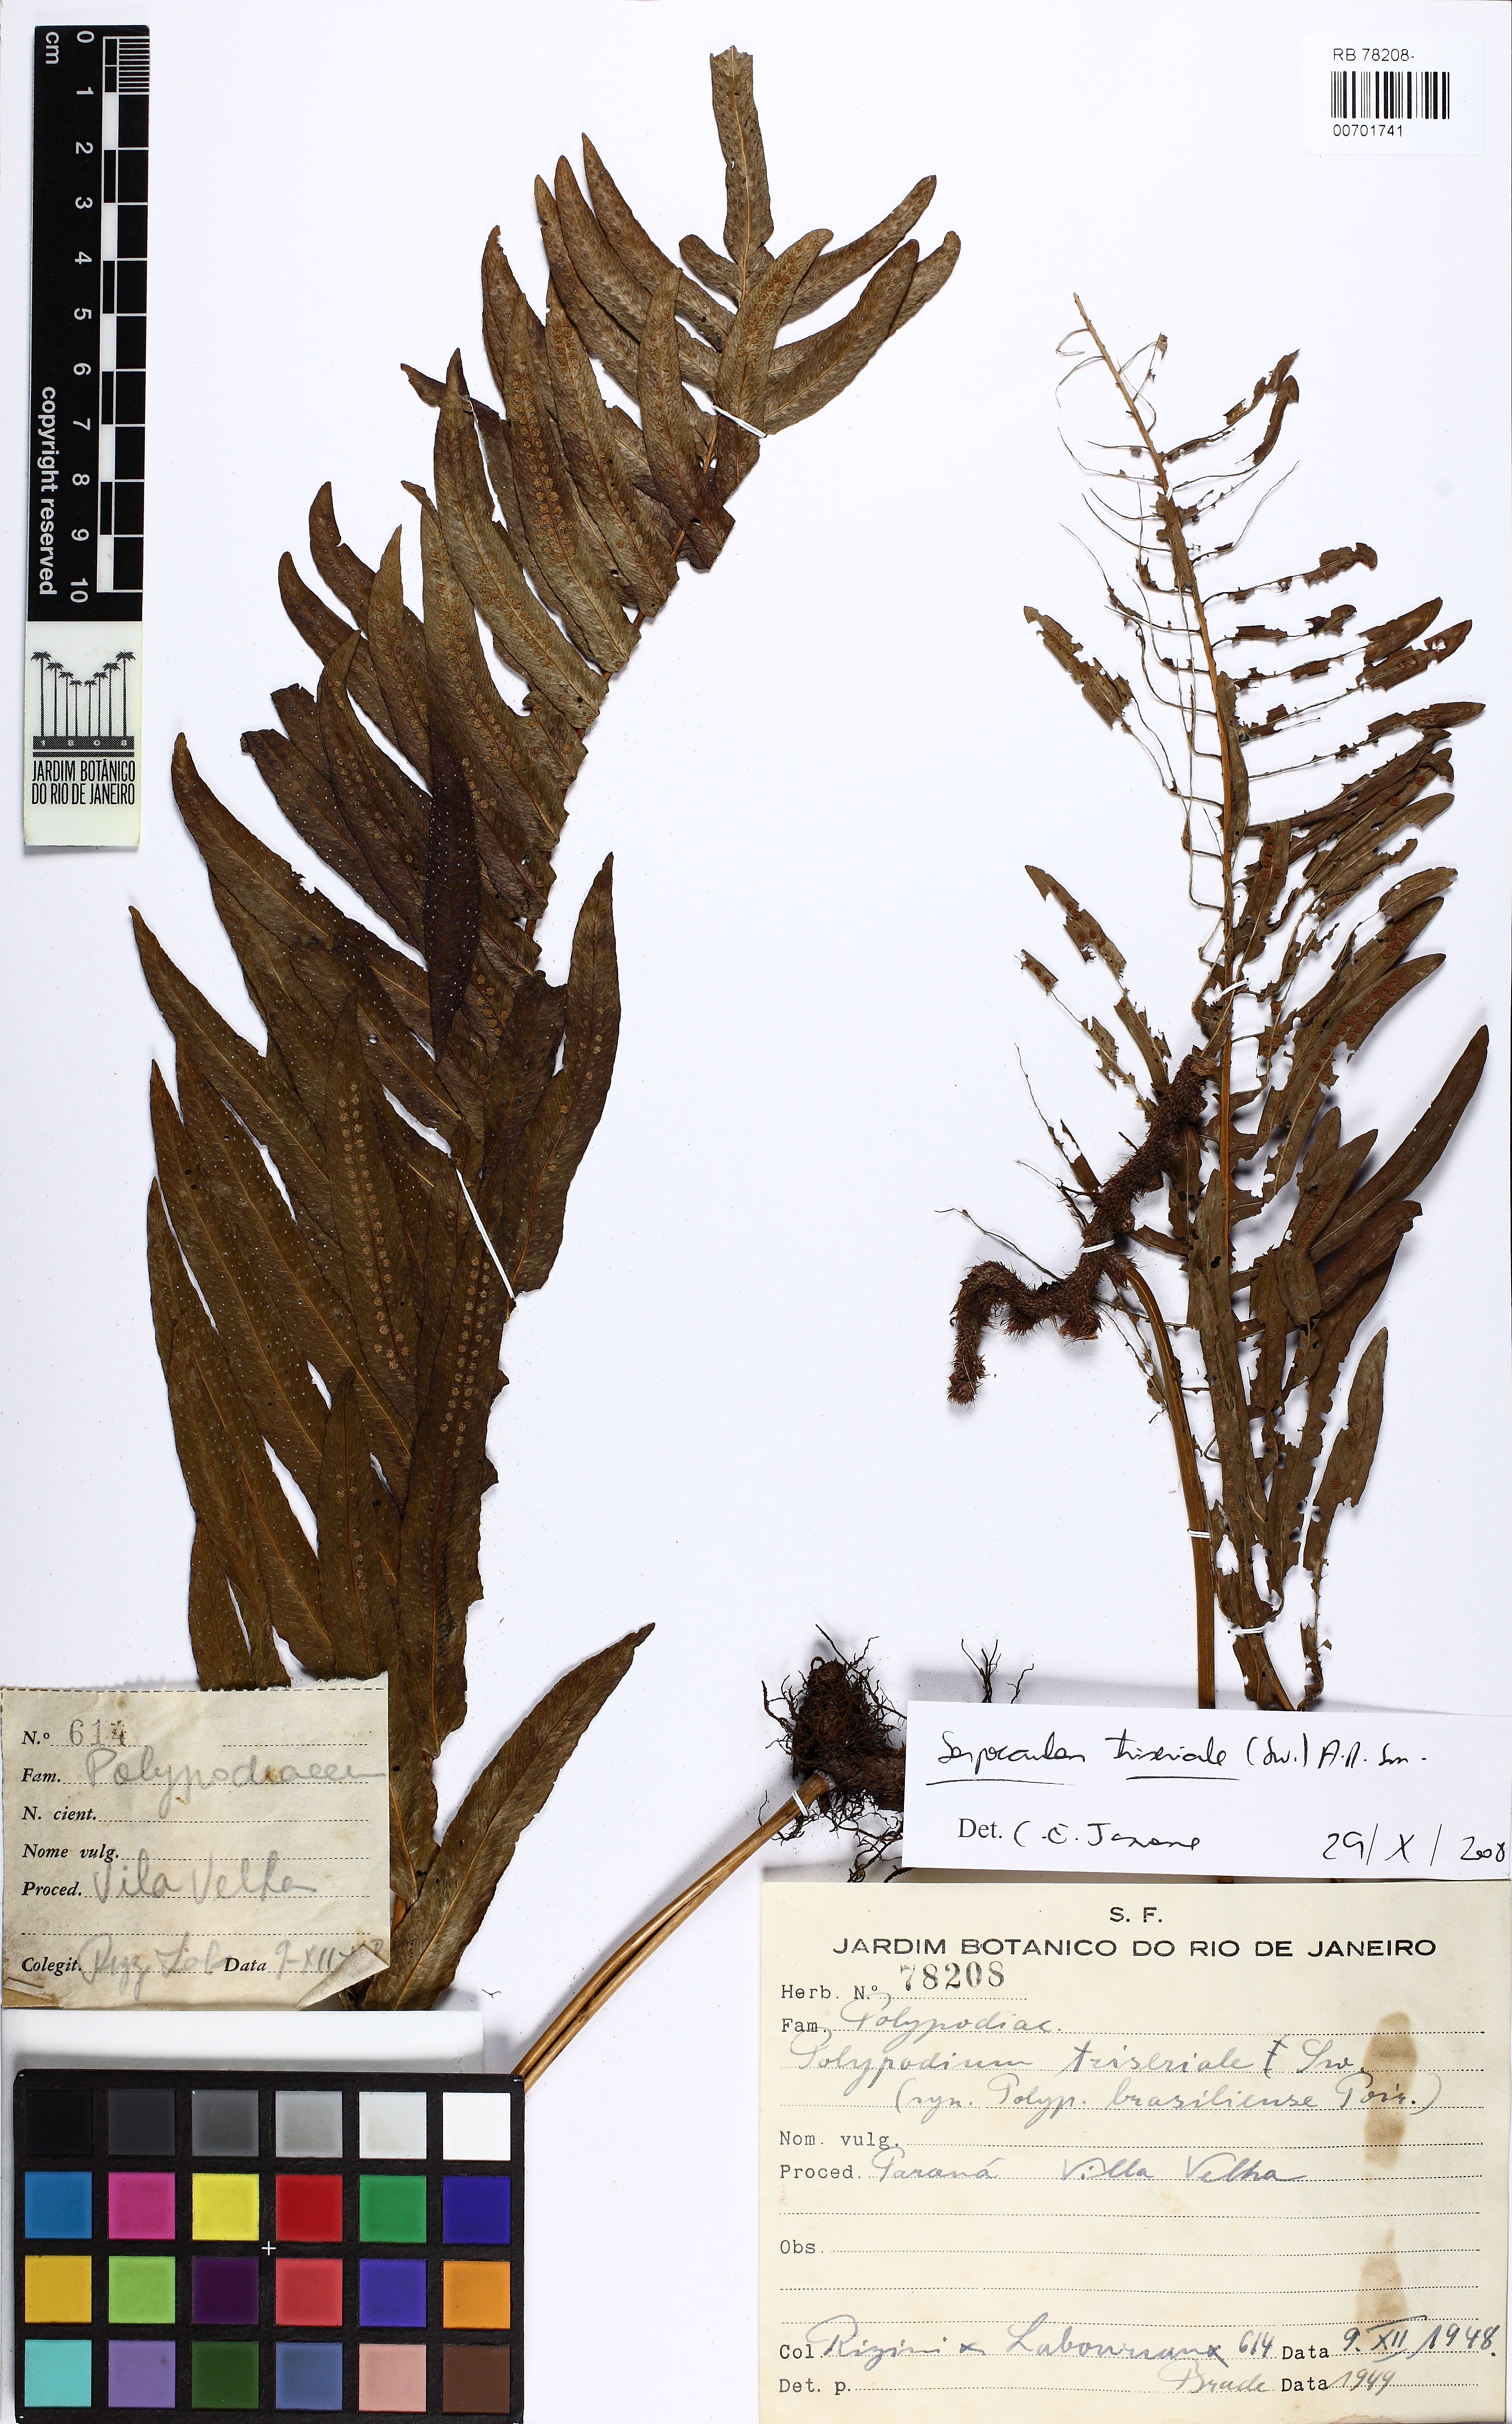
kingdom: Plantae
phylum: Tracheophyta
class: Polypodiopsida
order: Polypodiales
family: Polypodiaceae
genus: Serpocaulon
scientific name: Serpocaulon menisciifolium
